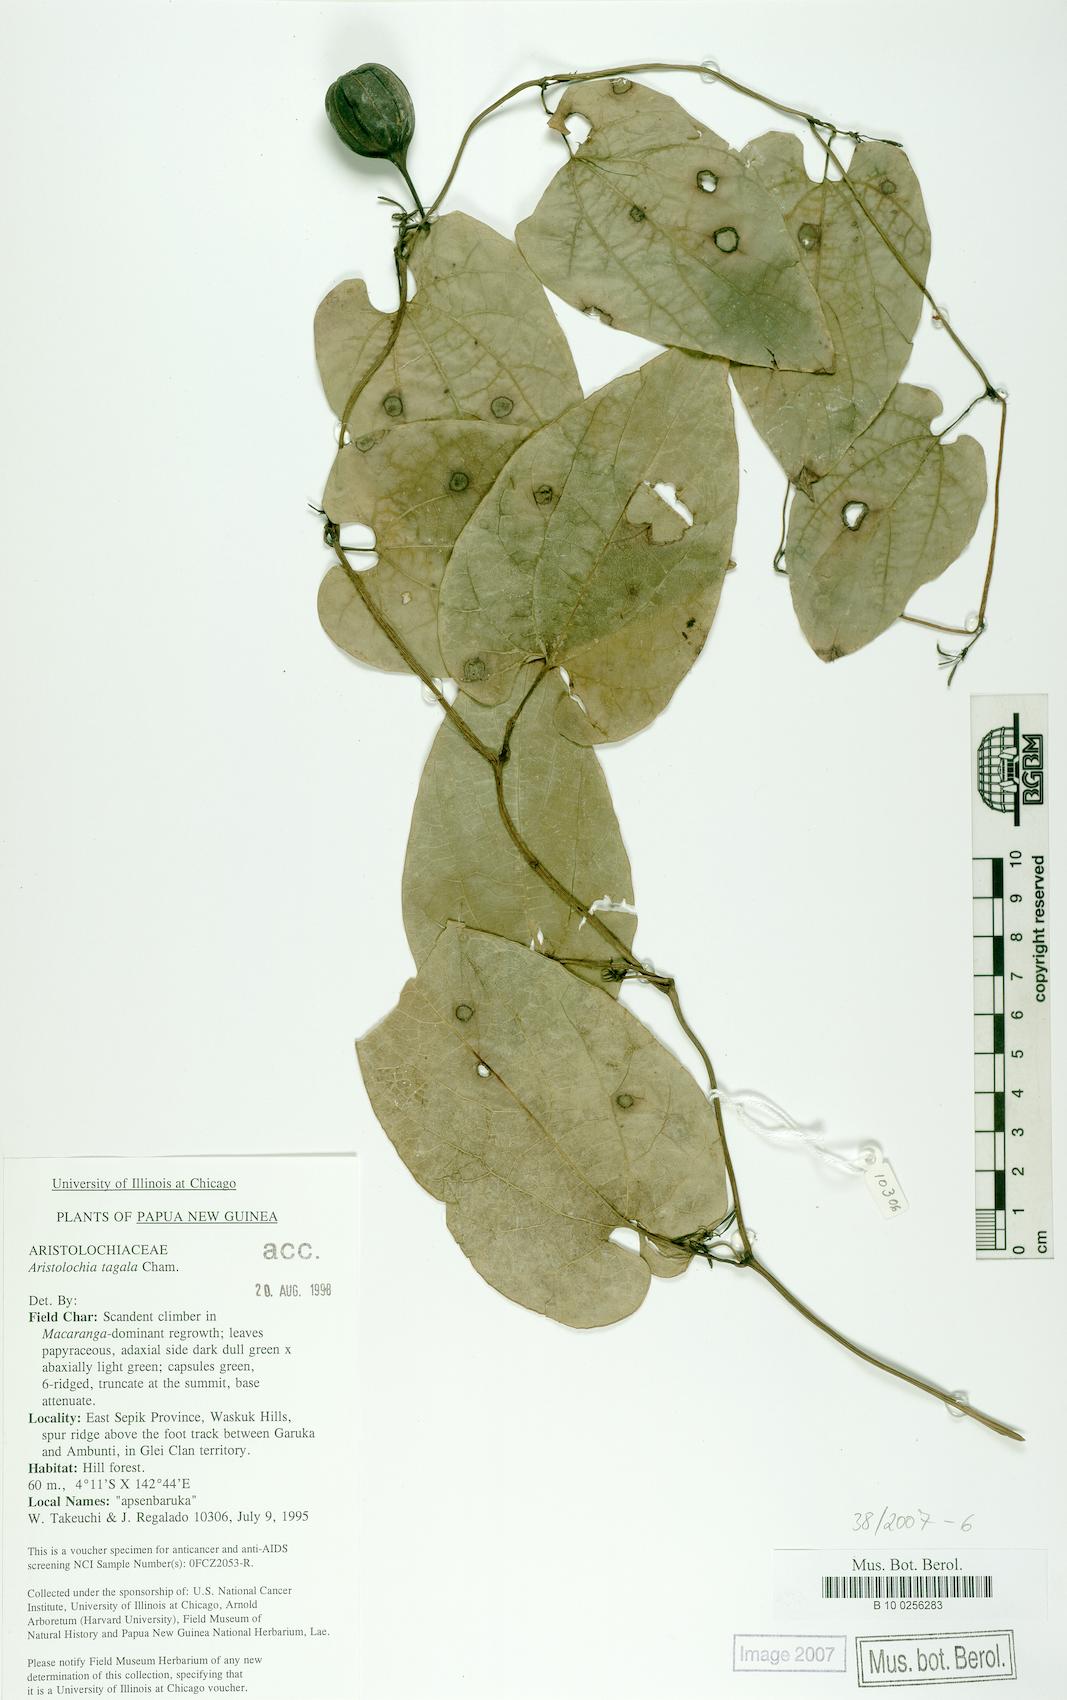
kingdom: Plantae
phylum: Tracheophyta
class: Magnoliopsida
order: Piperales
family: Aristolochiaceae
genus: Aristolochia
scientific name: Aristolochia acuminata
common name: Indian birthwort
